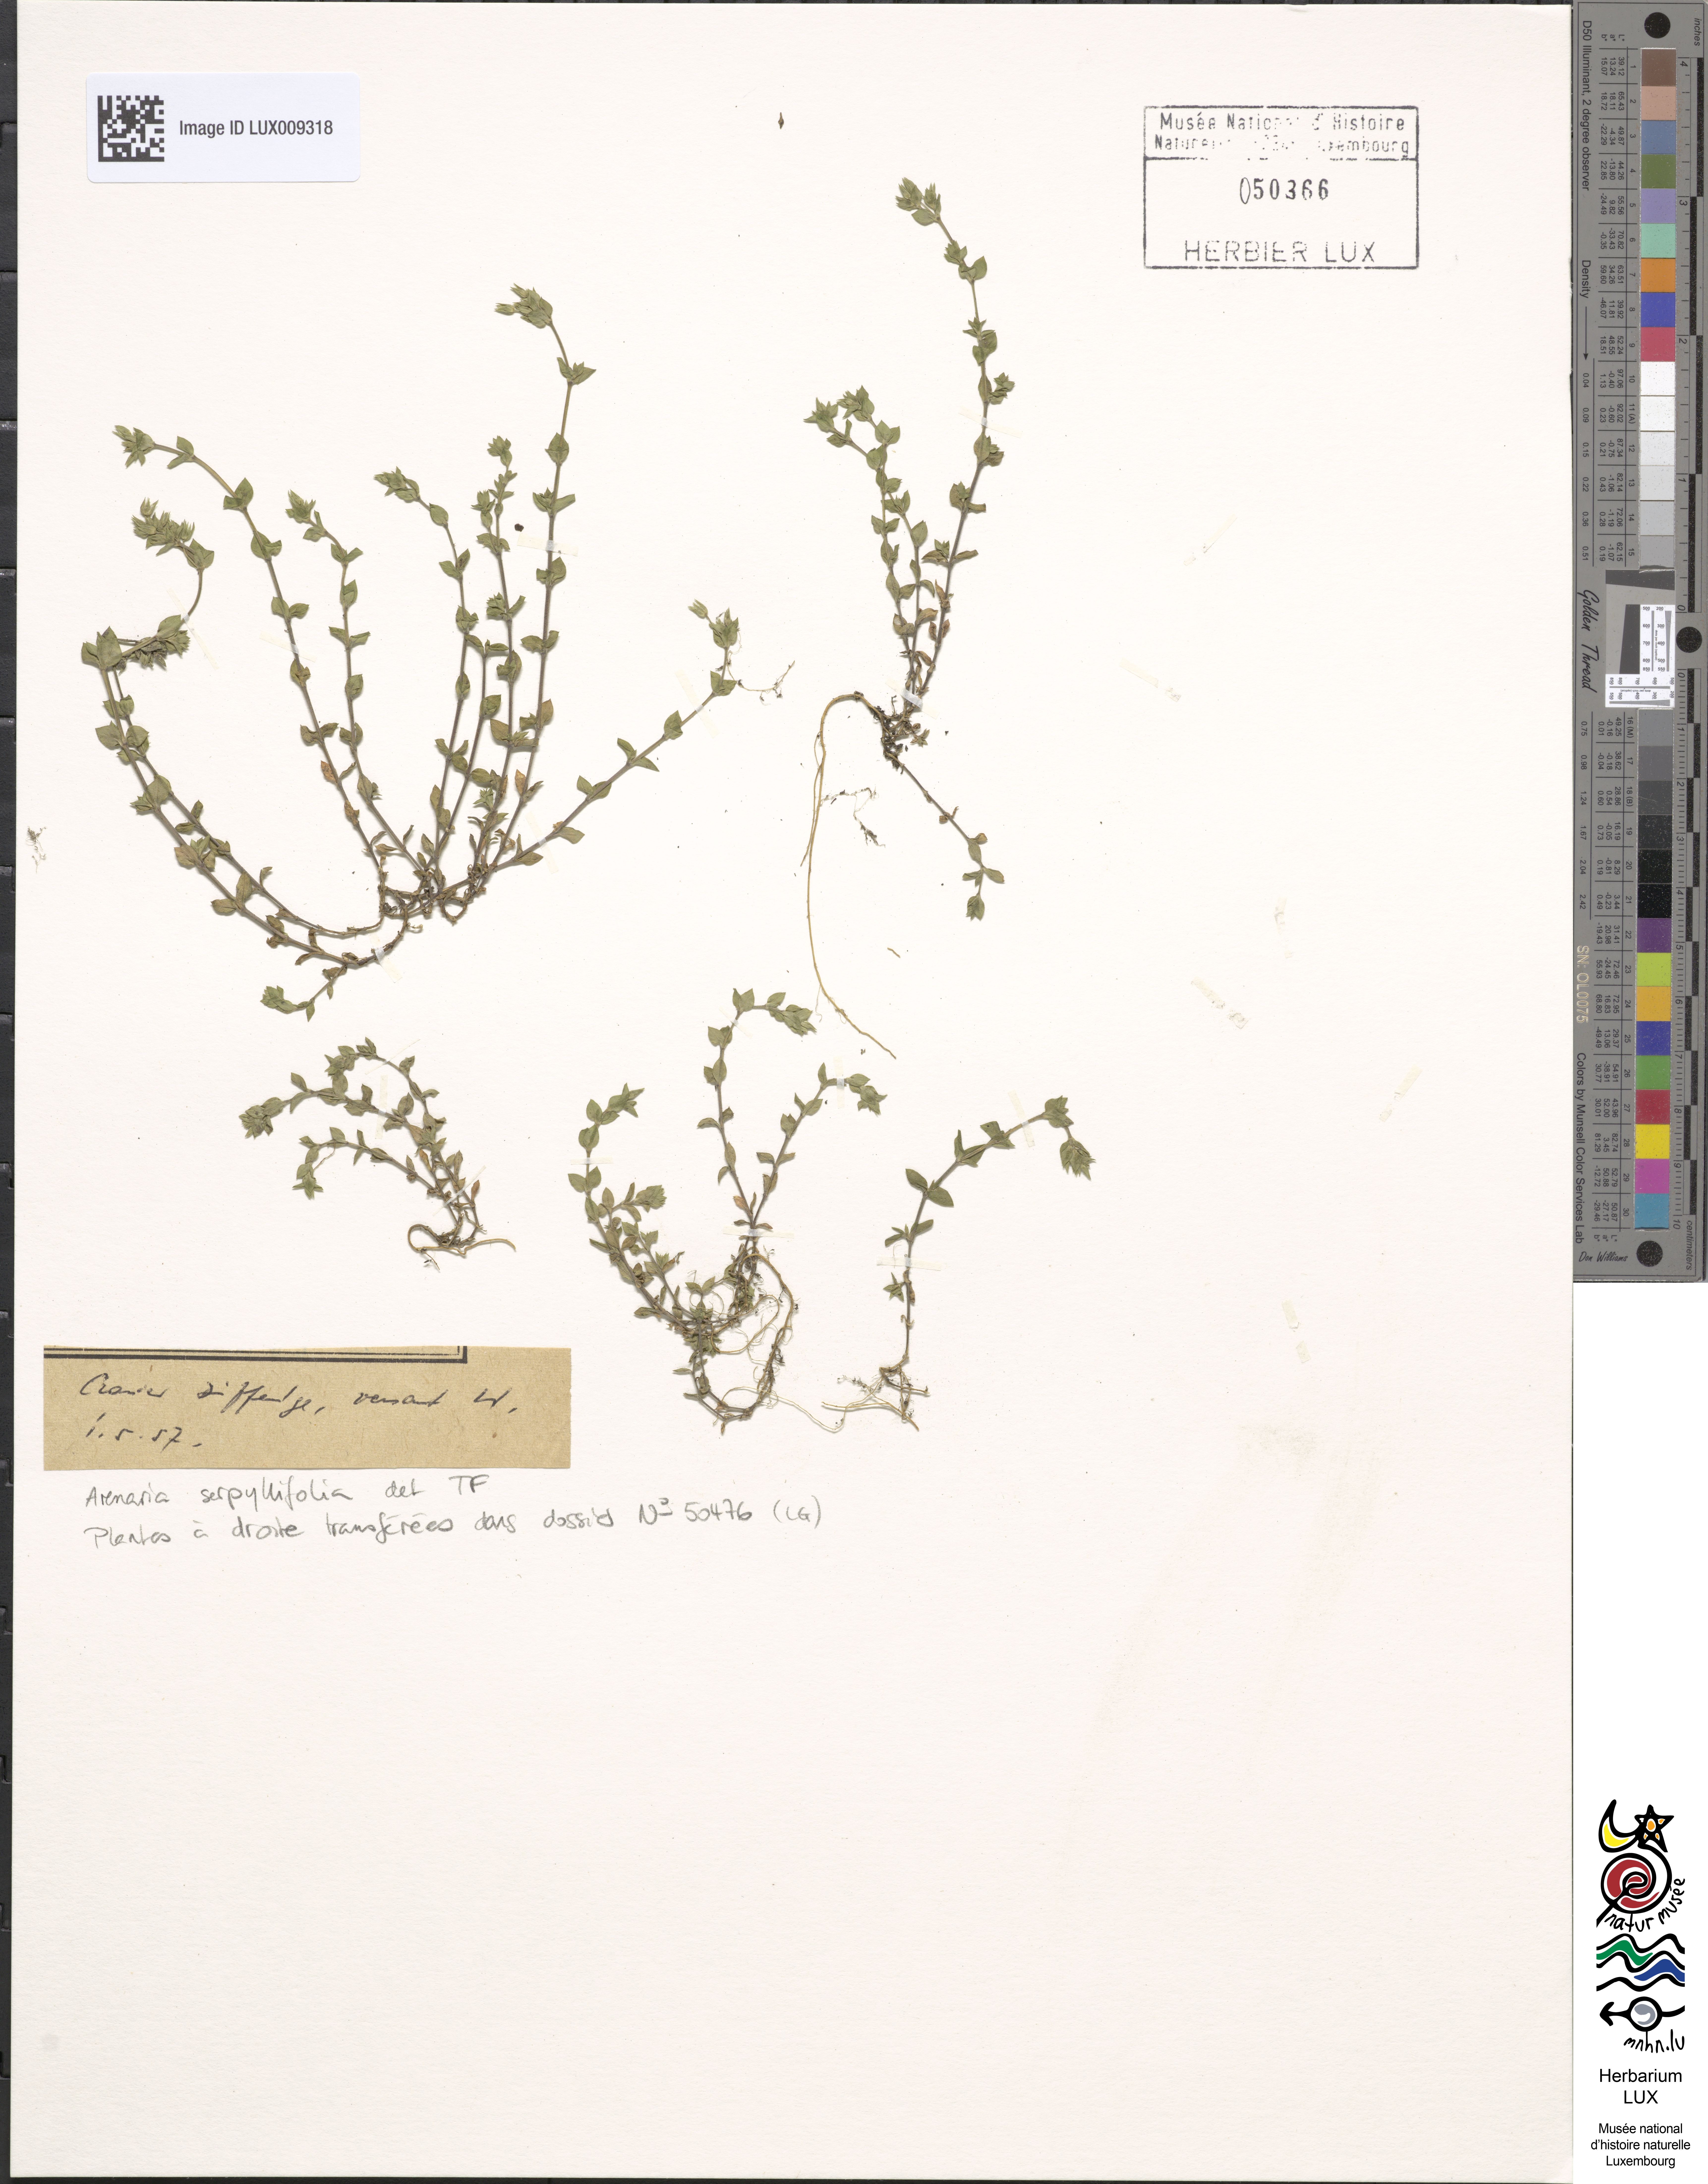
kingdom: Plantae
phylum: Tracheophyta
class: Magnoliopsida
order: Caryophyllales
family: Caryophyllaceae
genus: Arenaria
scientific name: Arenaria serpyllifolia
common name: Thyme-leaved sandwort
